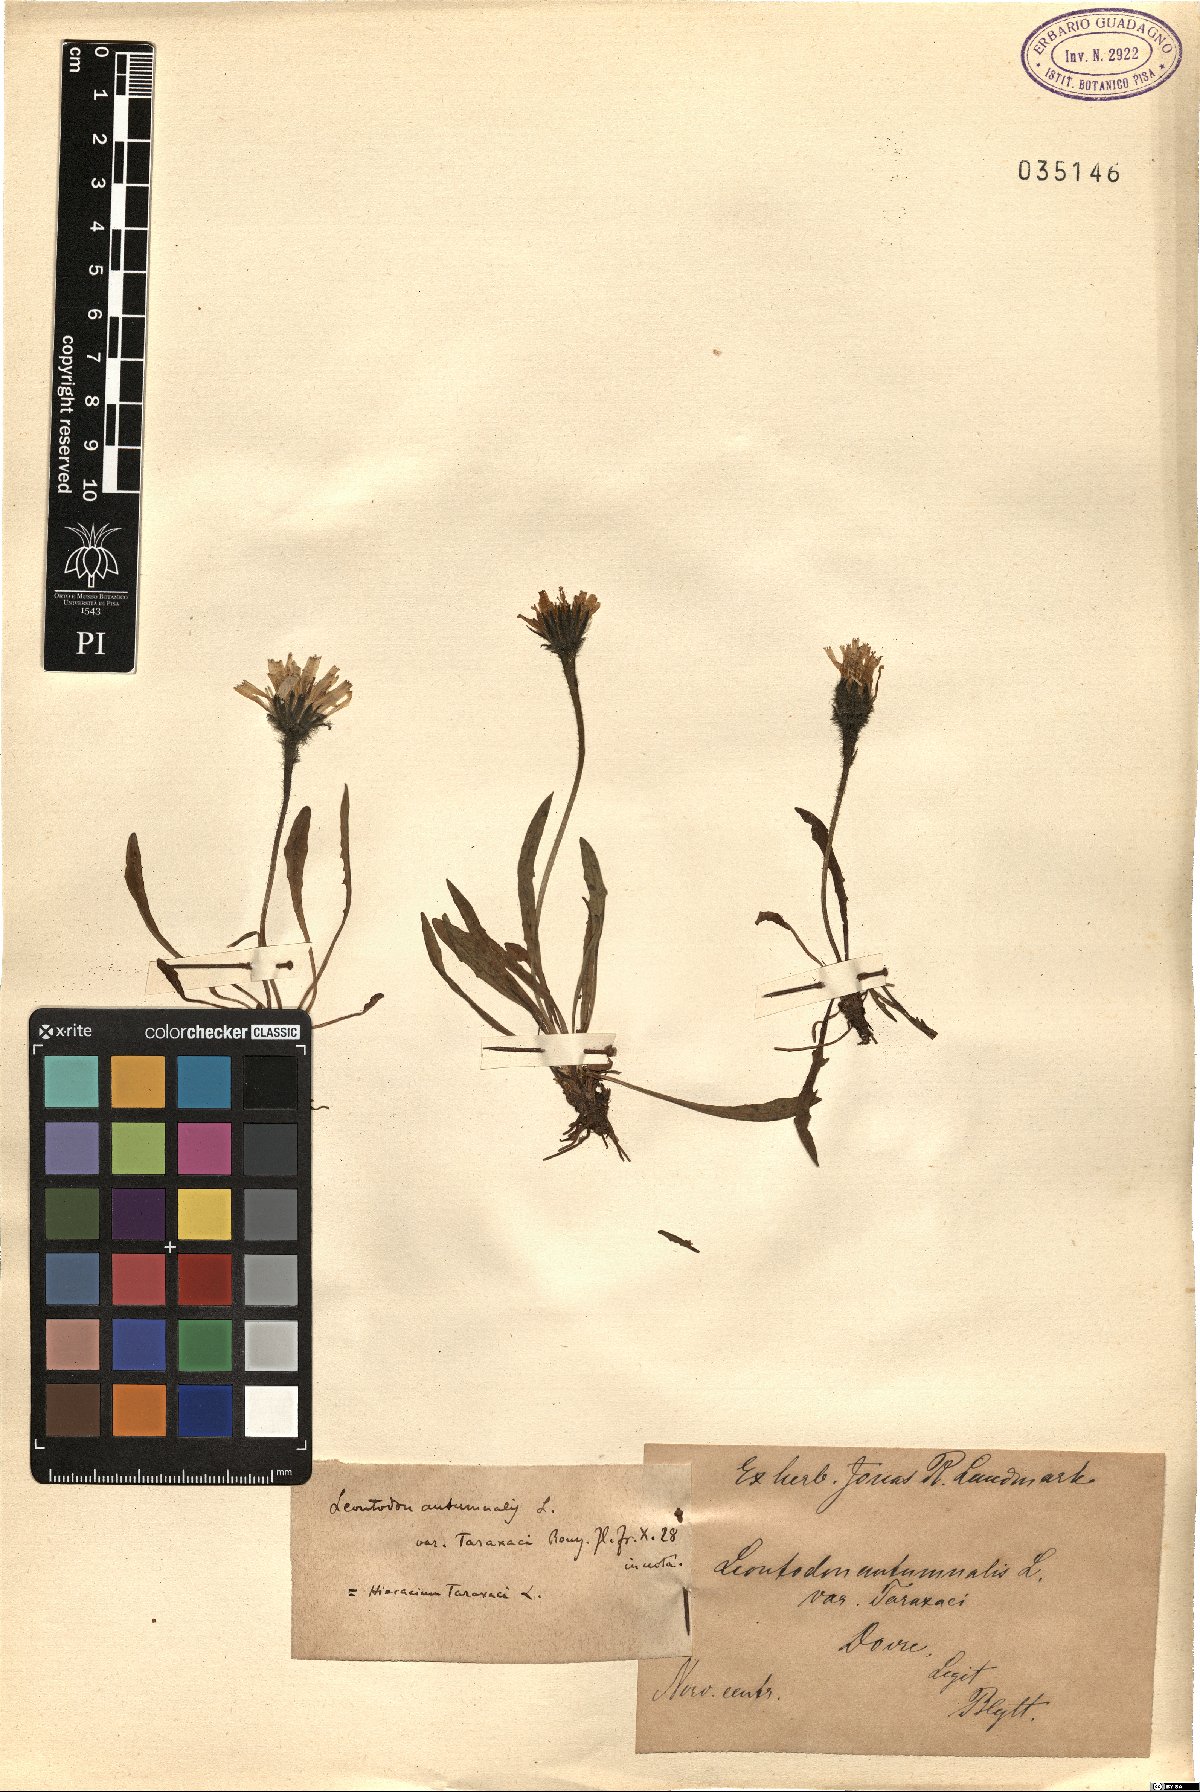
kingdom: Plantae
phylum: Tracheophyta
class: Magnoliopsida
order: Asterales
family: Asteraceae
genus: Scorzoneroides
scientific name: Scorzoneroides autumnalis
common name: Autumn hawkbit
